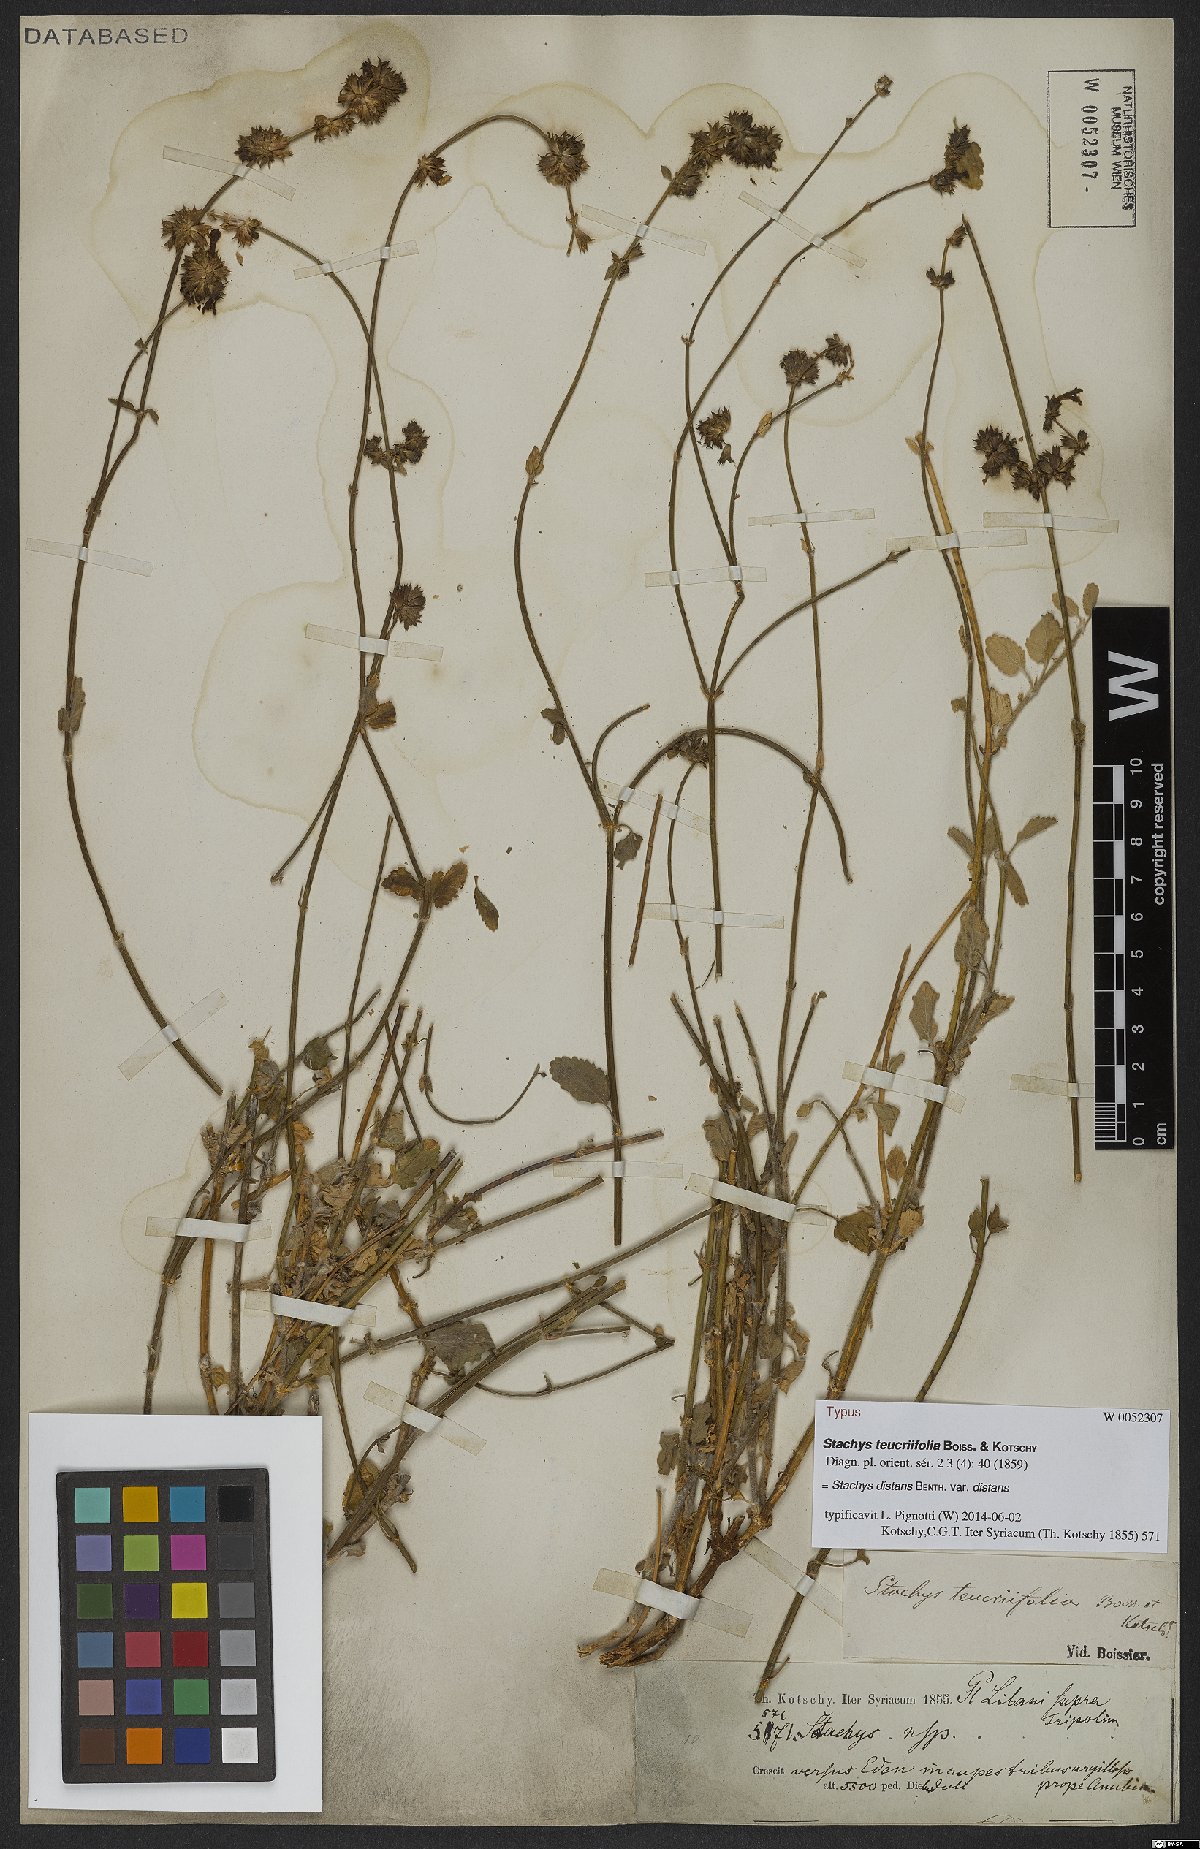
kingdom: Plantae
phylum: Tracheophyta
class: Magnoliopsida
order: Lamiales
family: Lamiaceae
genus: Stachys
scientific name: Stachys distans
